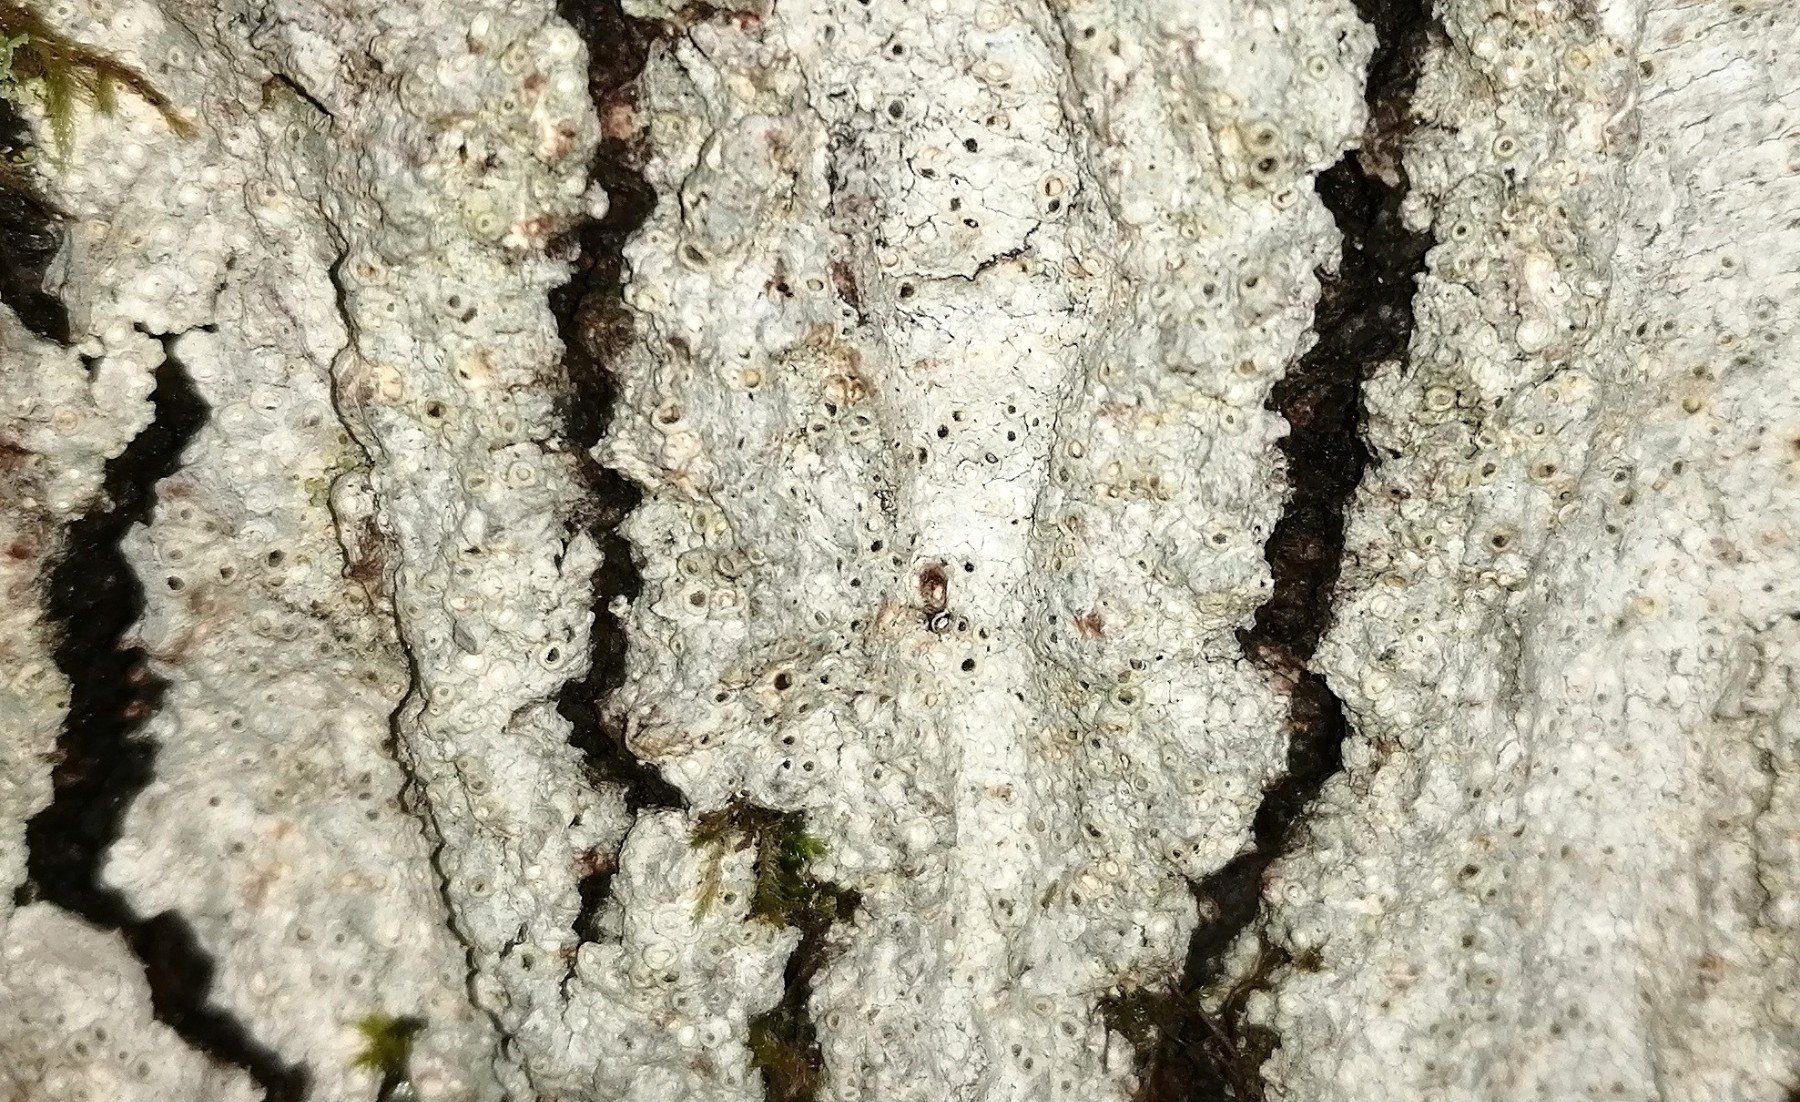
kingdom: Fungi
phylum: Ascomycota
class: Lecanoromycetes
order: Ostropales
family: Graphidaceae
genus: Thelotrema
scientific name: Thelotrema lepadinum
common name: almindelig slørkantlav
